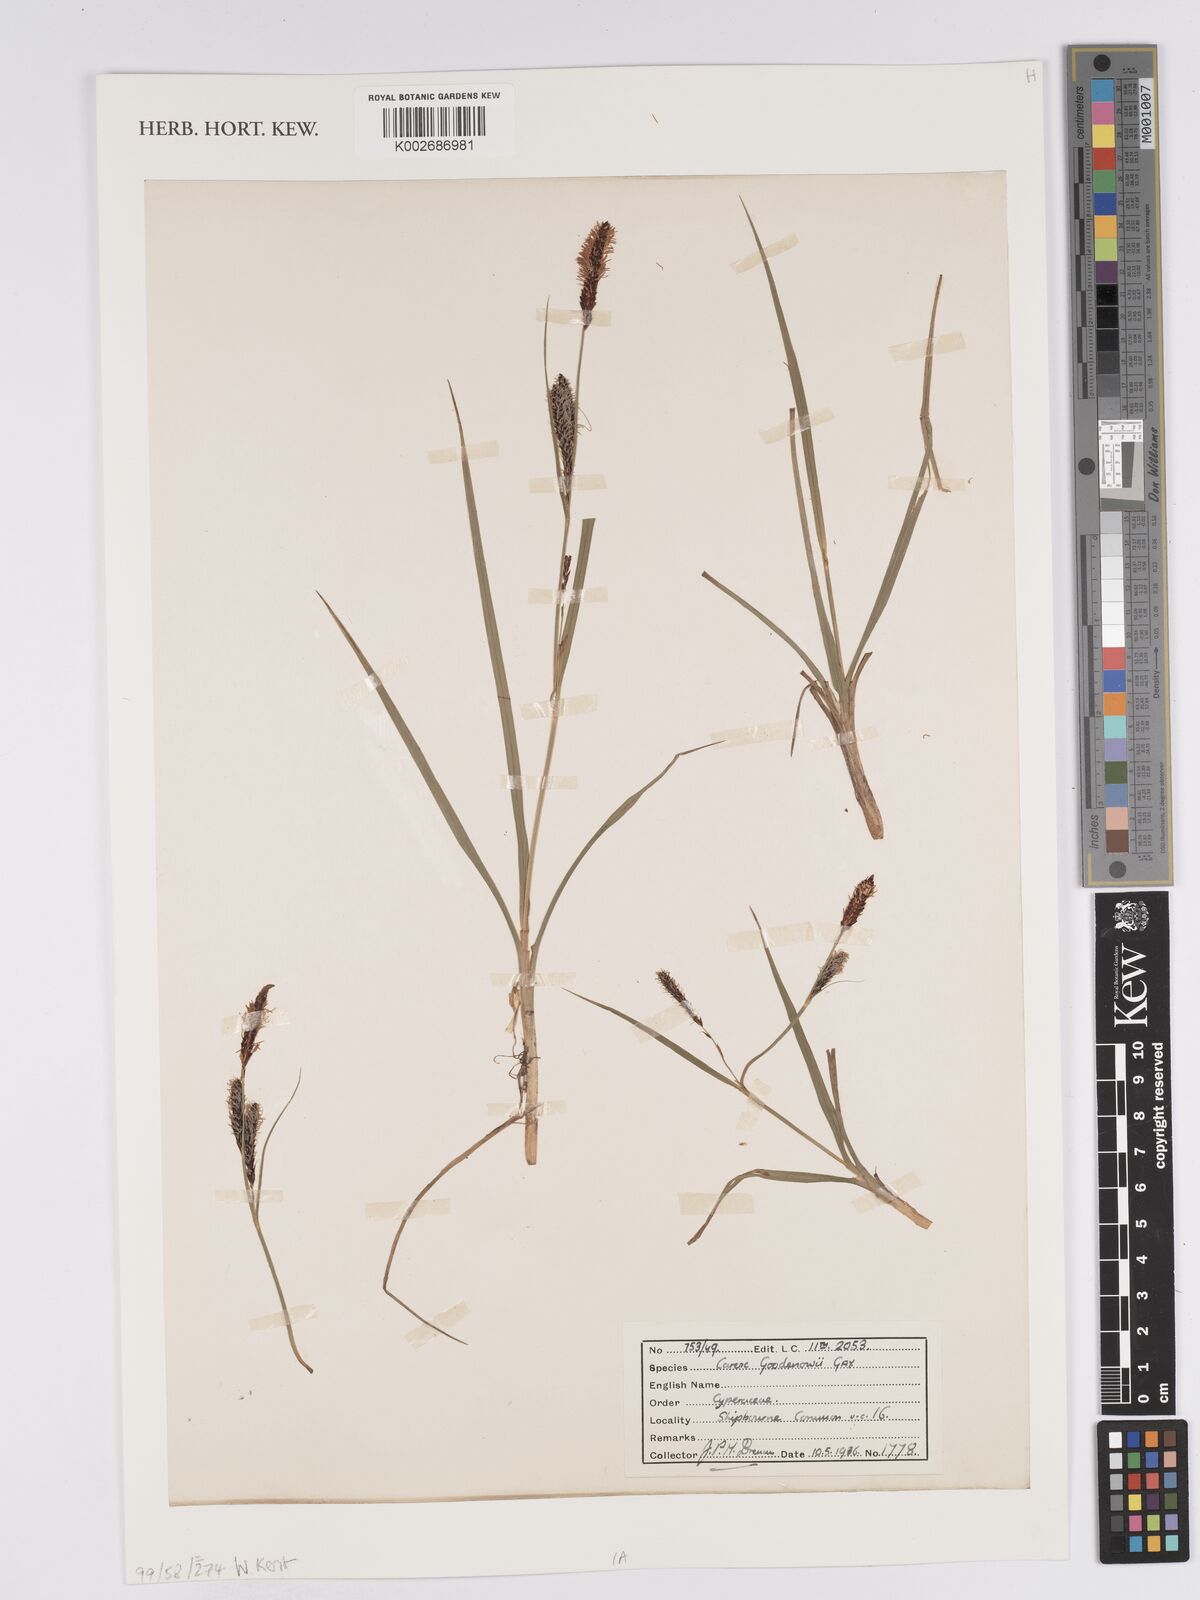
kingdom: Plantae
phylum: Tracheophyta
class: Liliopsida
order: Poales
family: Cyperaceae
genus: Carex
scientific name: Carex nigra
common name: Common sedge
